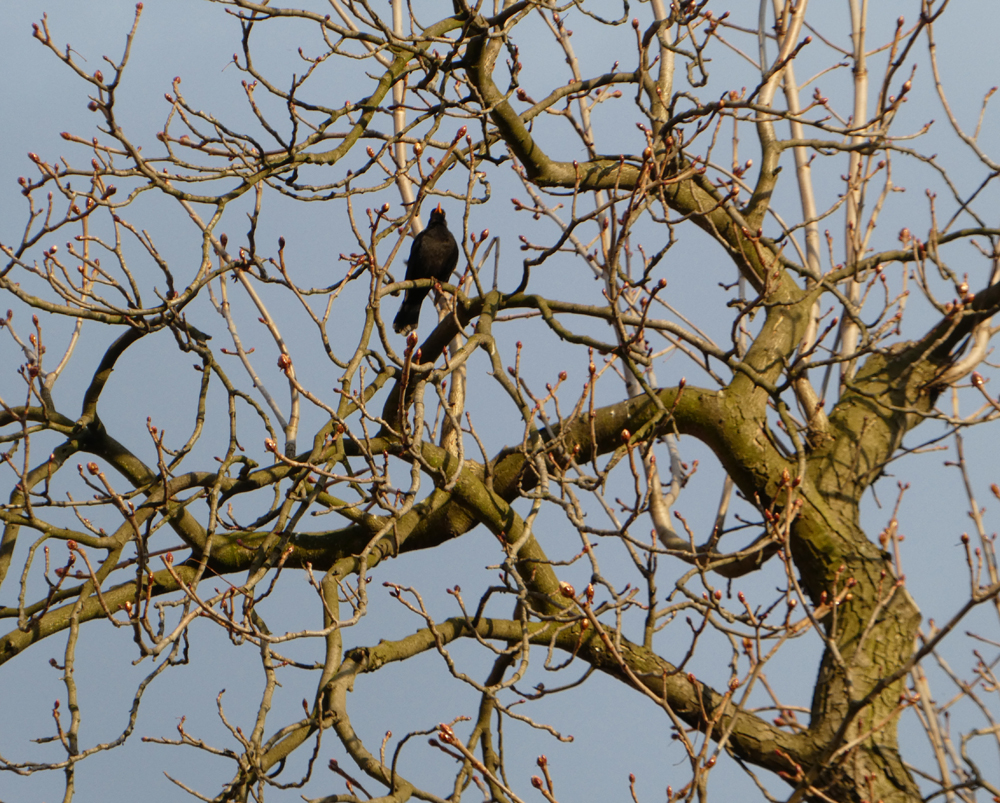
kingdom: Animalia
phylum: Chordata
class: Aves
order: Passeriformes
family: Turdidae
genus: Turdus
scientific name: Turdus merula
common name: Common blackbird
